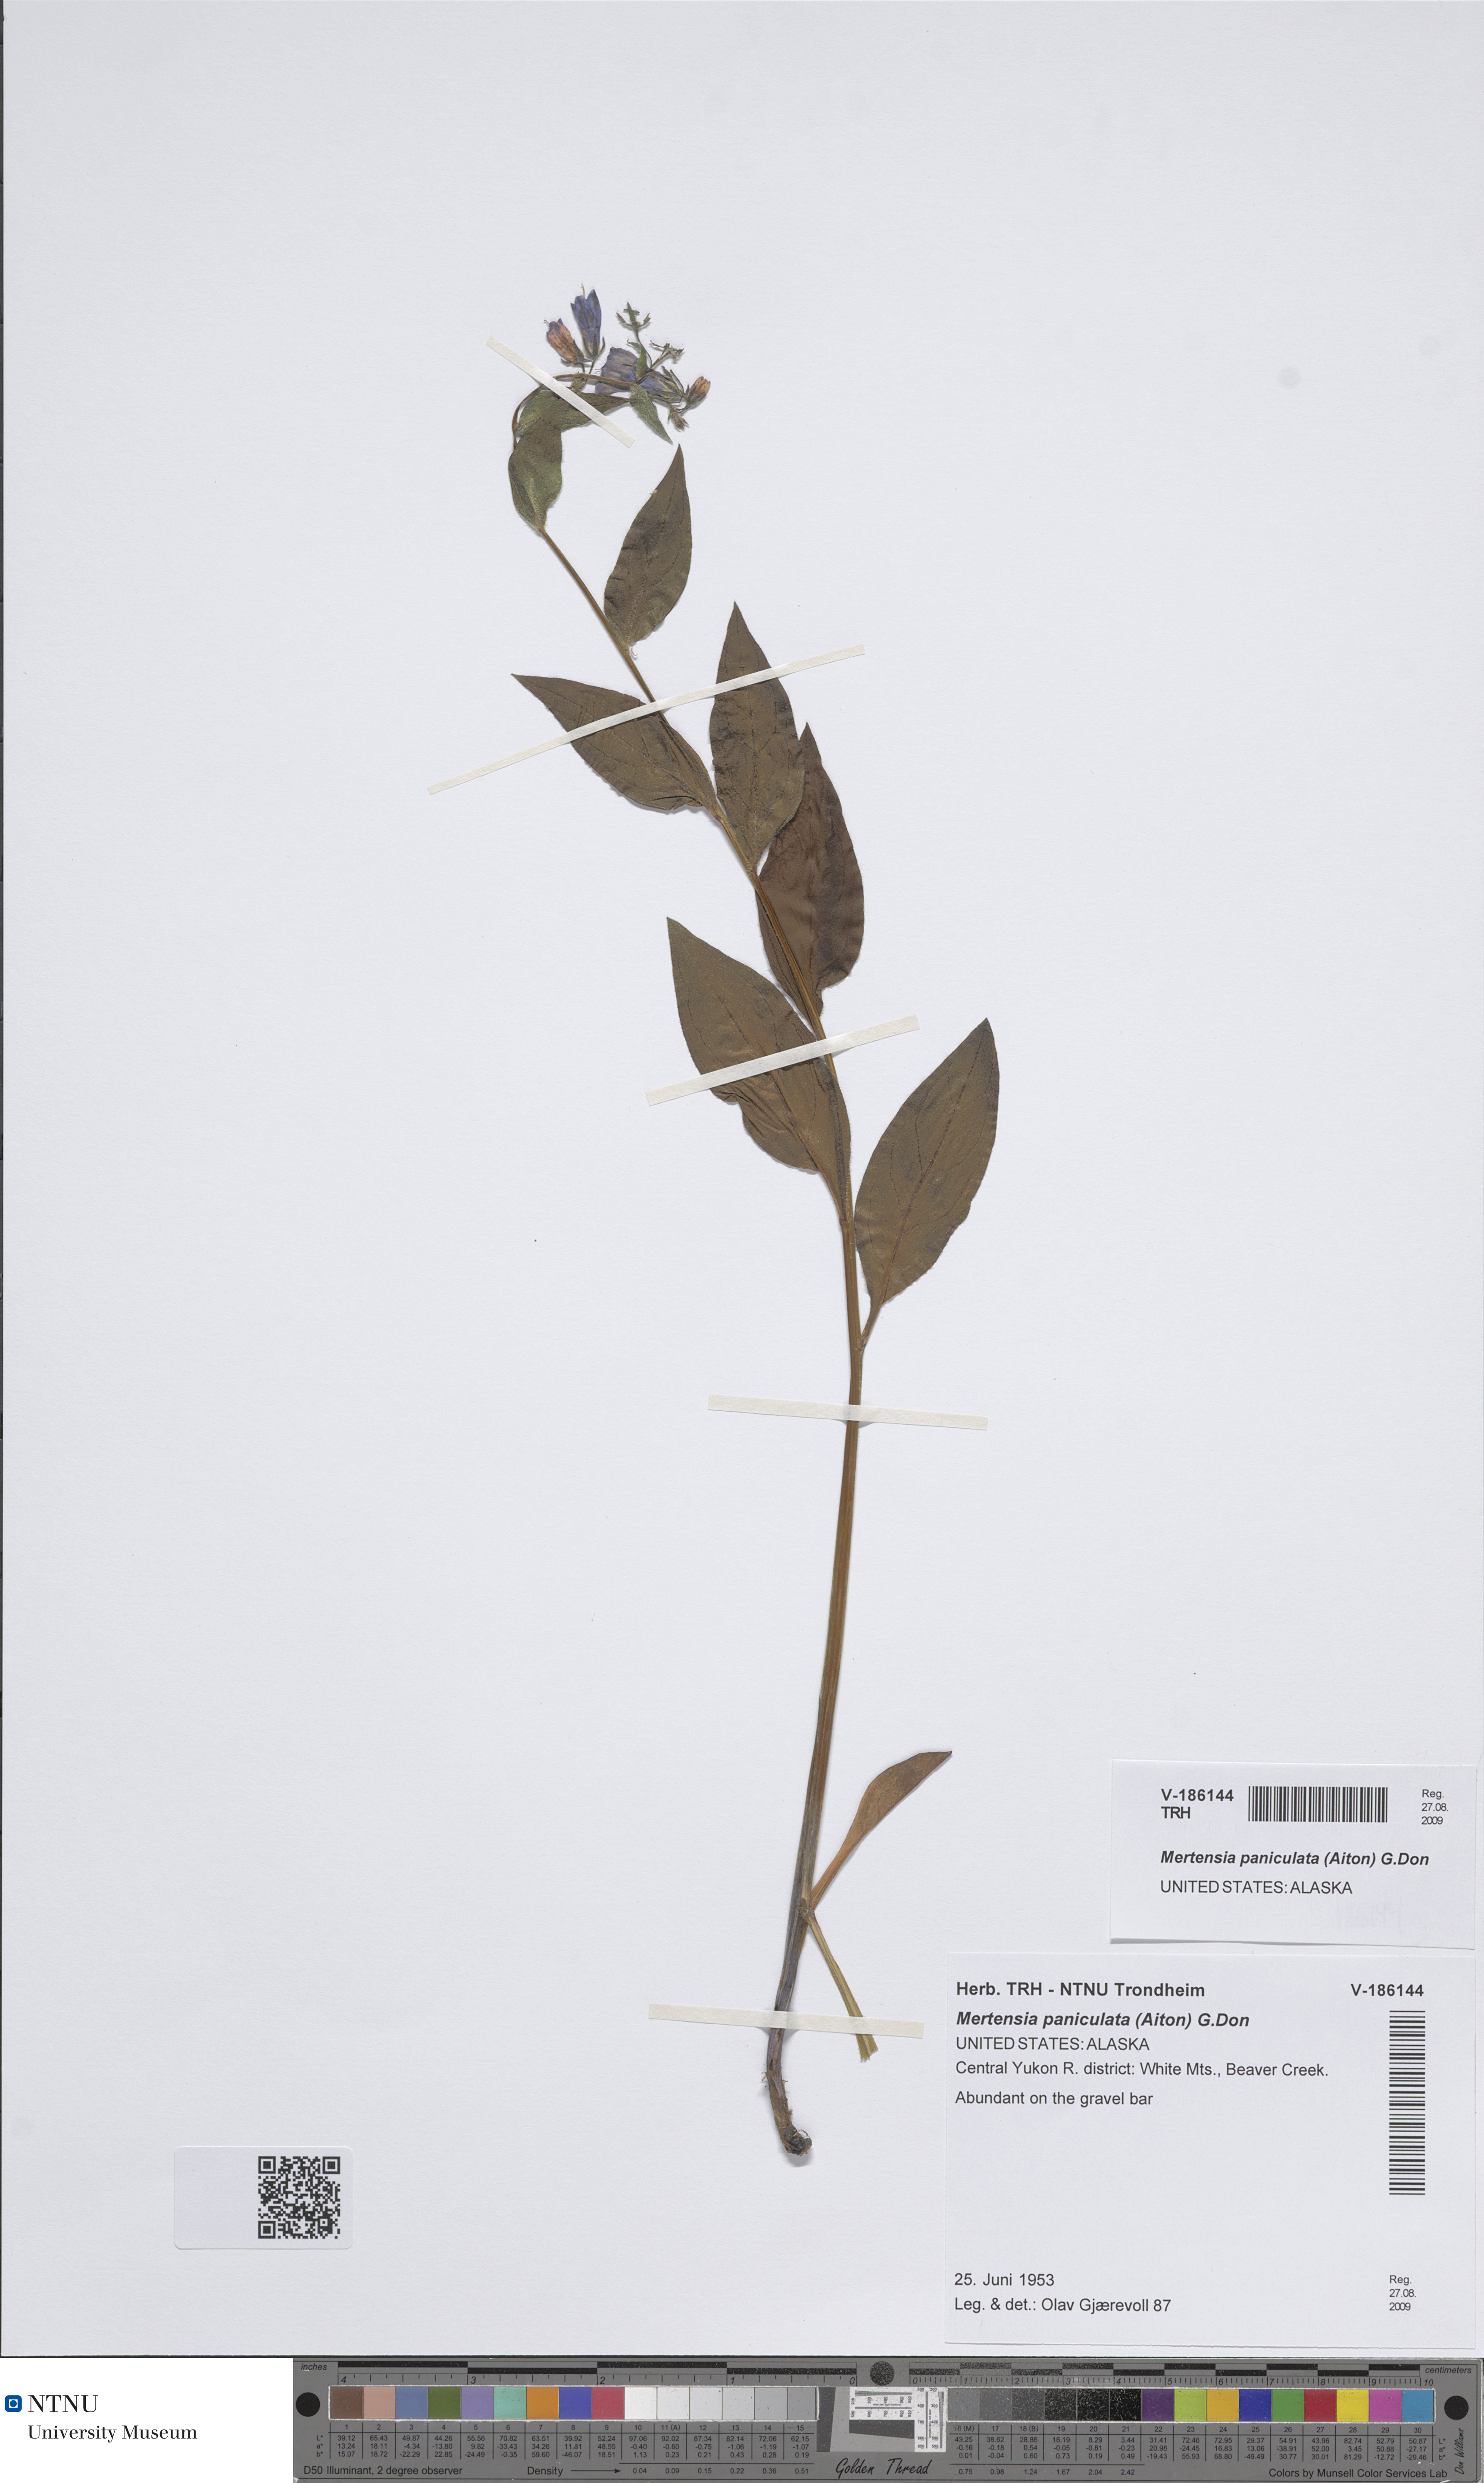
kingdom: Plantae
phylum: Tracheophyta
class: Magnoliopsida
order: Boraginales
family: Boraginaceae
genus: Mertensia
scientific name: Mertensia paniculata
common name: Panicled bluebells
